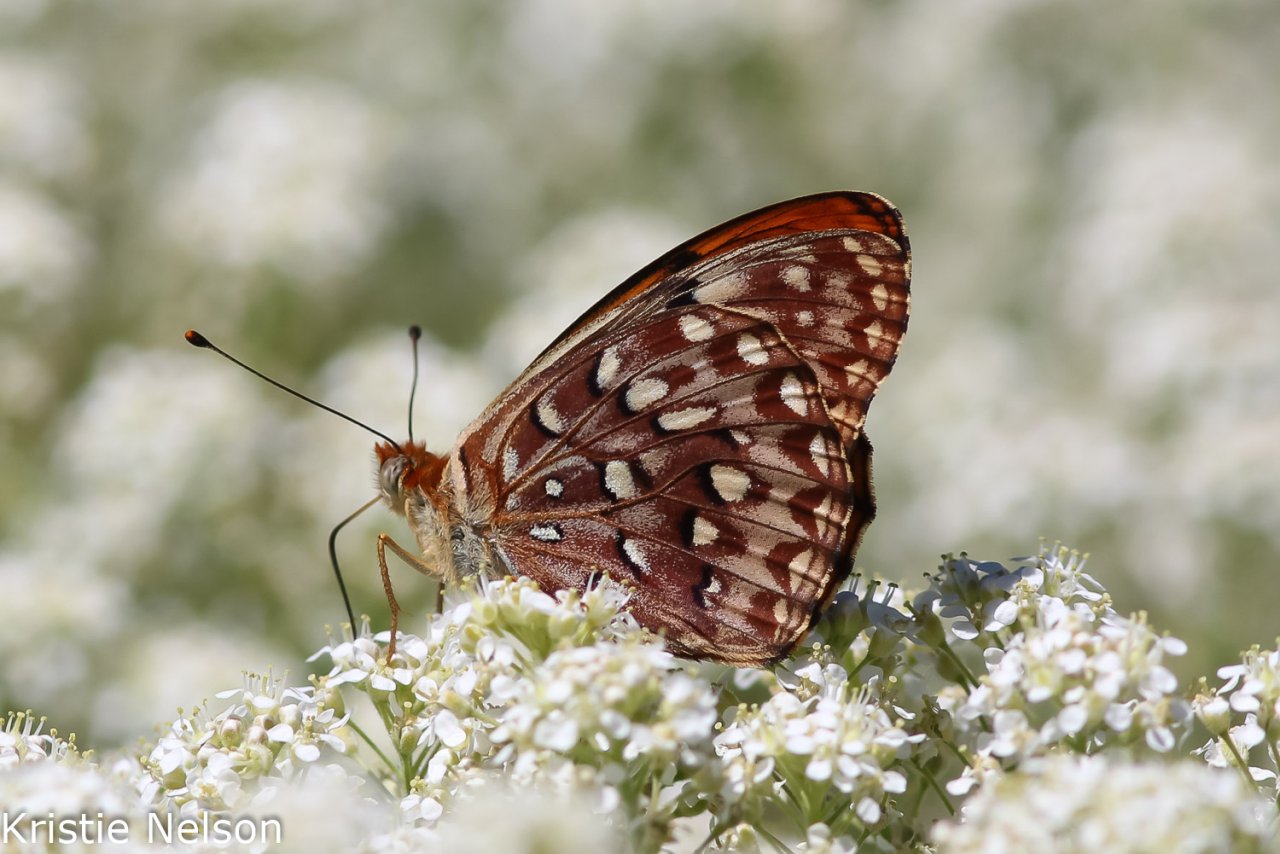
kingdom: Animalia
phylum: Arthropoda
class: Insecta
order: Lepidoptera
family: Nymphalidae
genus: Speyeria
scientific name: Speyeria zerene
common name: Zerene Fritillary
